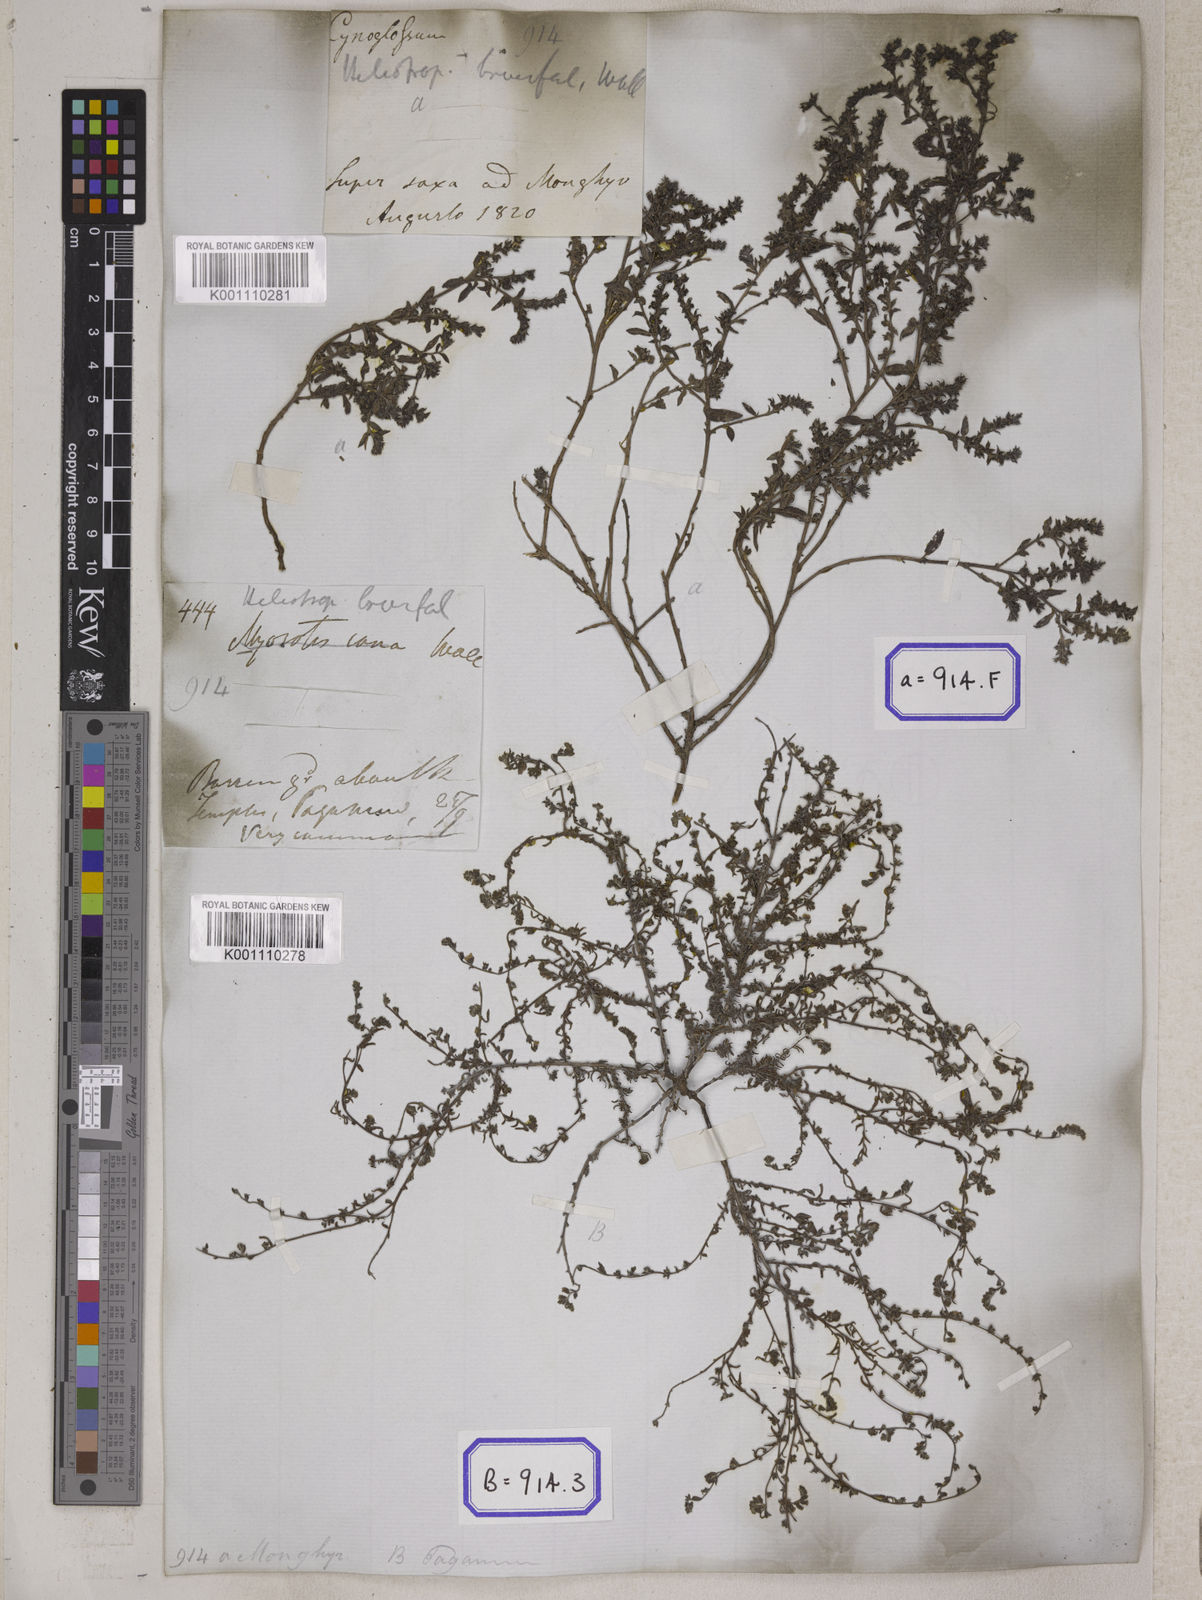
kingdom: Plantae
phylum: Tracheophyta
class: Magnoliopsida
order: Boraginales
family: Heliotropiaceae
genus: Euploca
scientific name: Euploca strigosa
